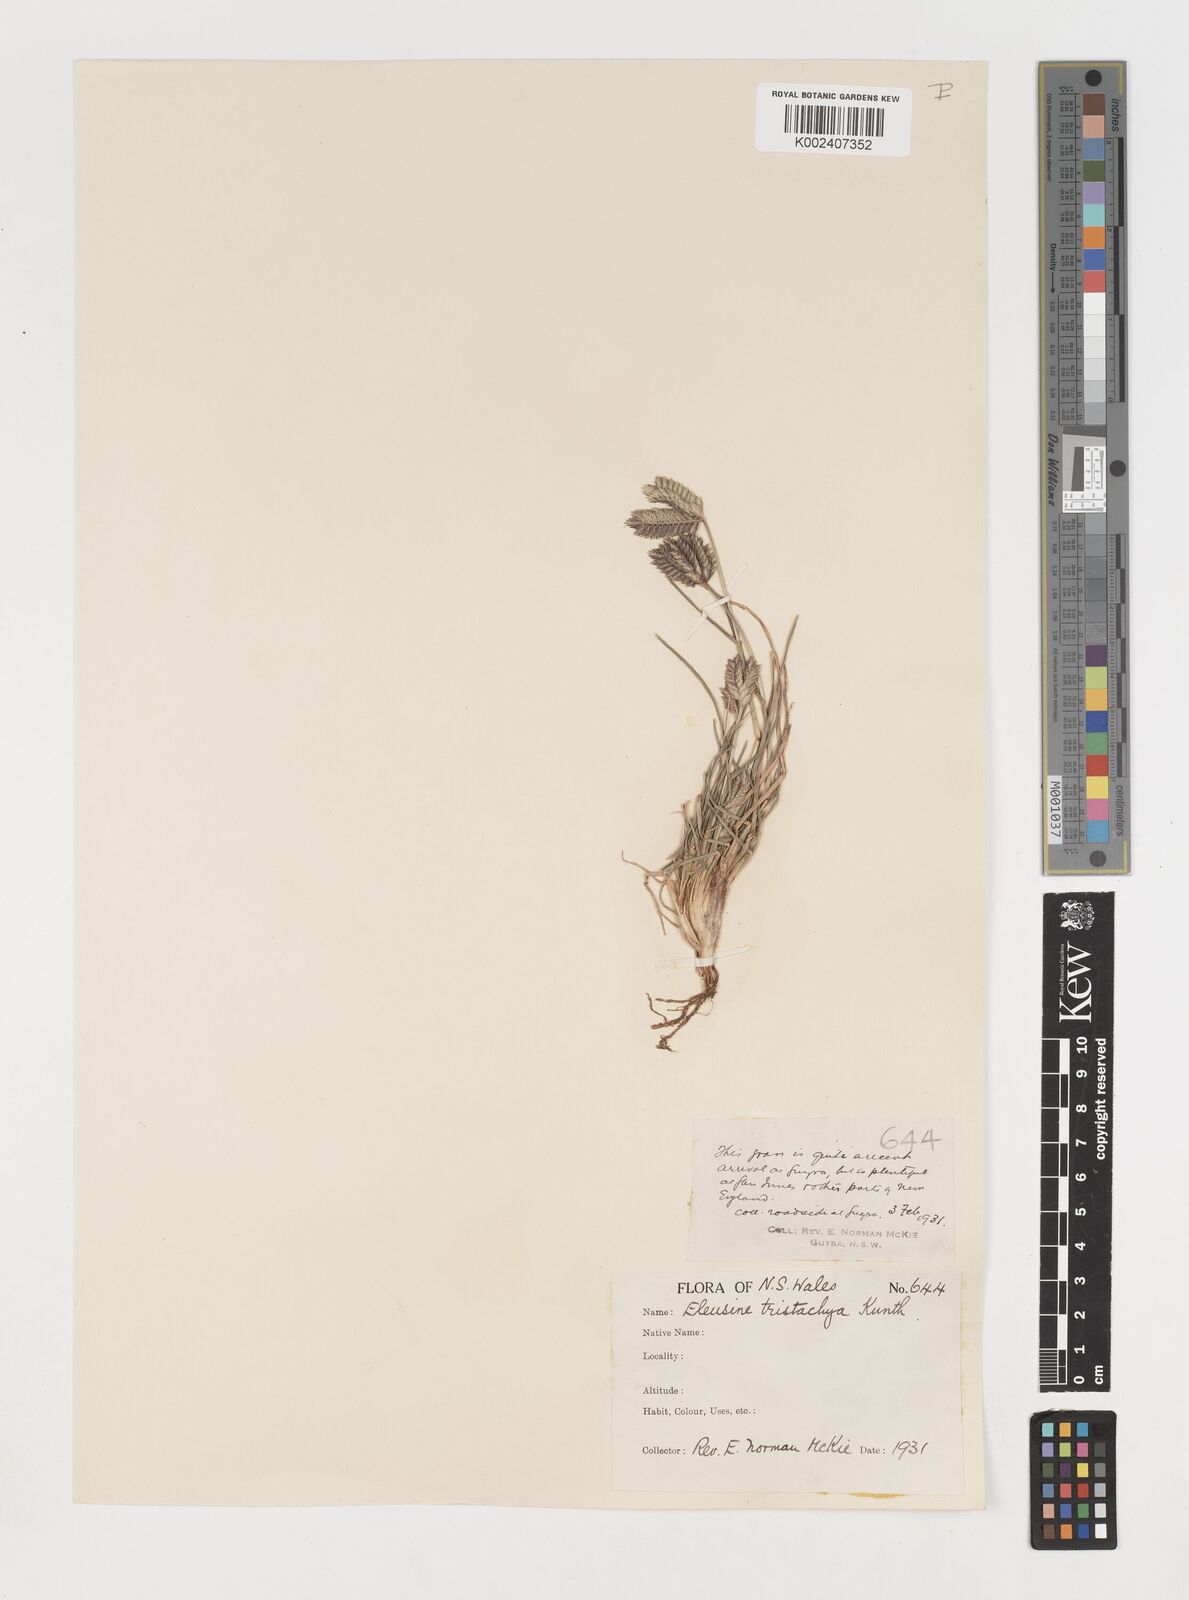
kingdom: Plantae
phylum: Tracheophyta
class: Liliopsida
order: Poales
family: Poaceae
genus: Eleusine
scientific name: Eleusine tristachya
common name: American yard-grass
